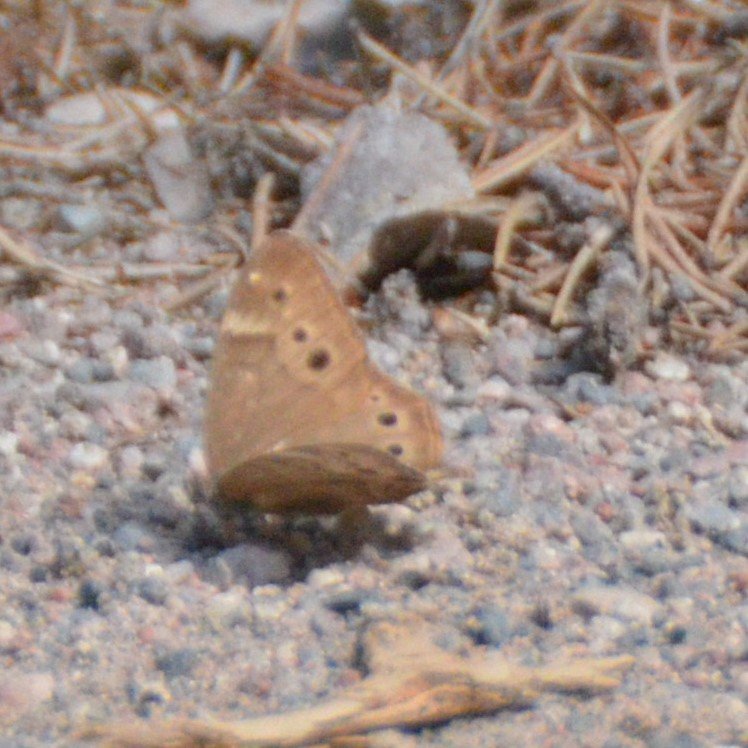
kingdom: Animalia
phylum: Arthropoda
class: Insecta
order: Lepidoptera
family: Nymphalidae
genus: Lethe
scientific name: Lethe anthedon
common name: Northern Pearly-Eye
